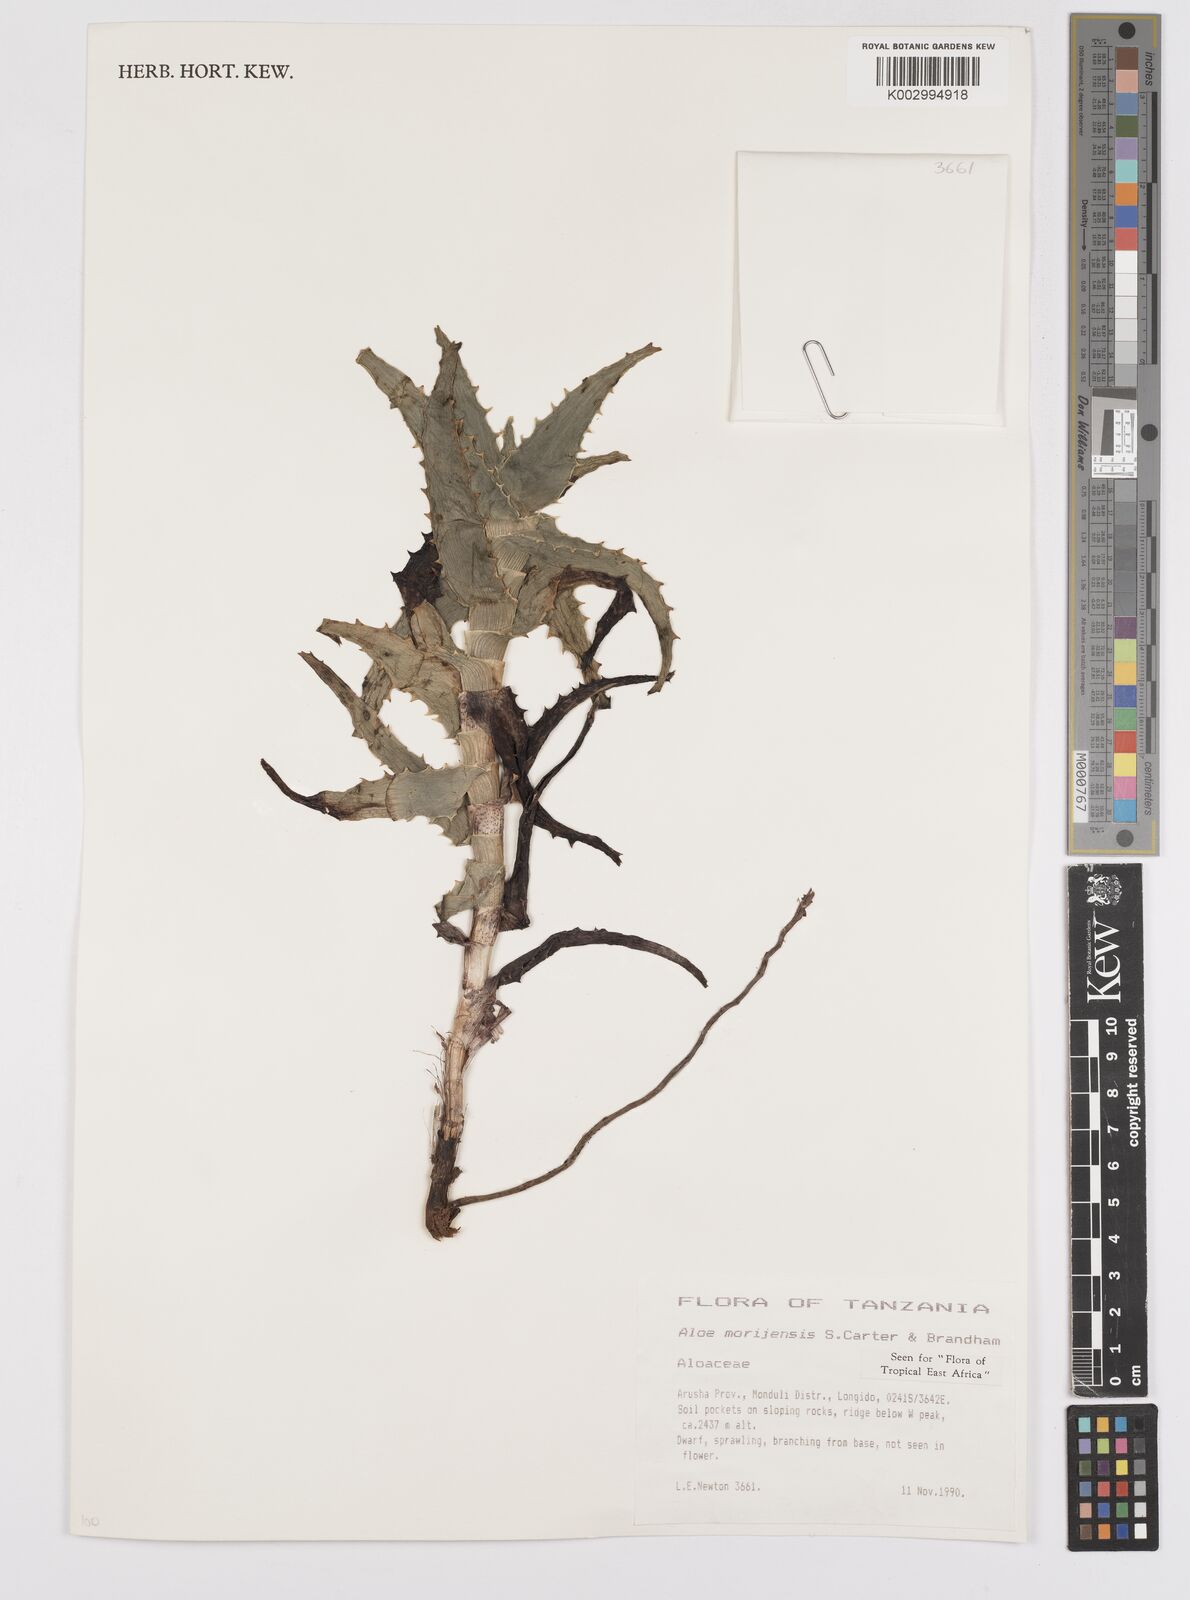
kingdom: Plantae
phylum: Tracheophyta
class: Liliopsida
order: Asparagales
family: Asphodelaceae
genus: Aloe
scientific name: Aloe morijensis
